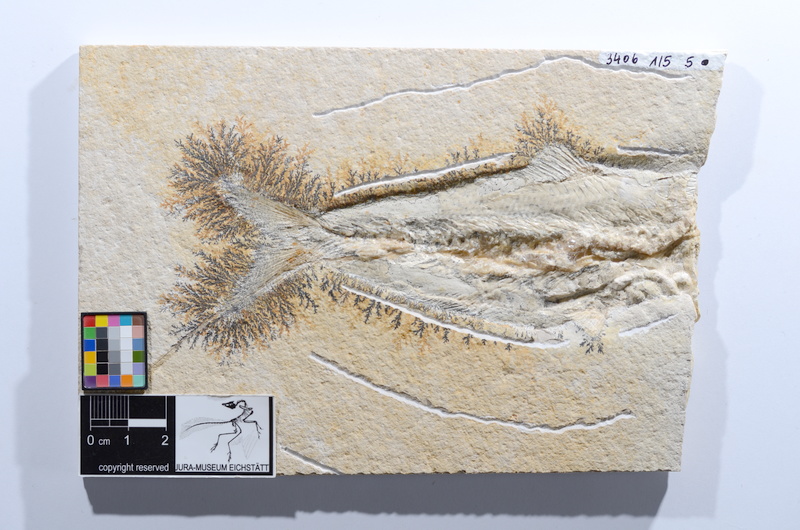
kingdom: Animalia
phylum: Chordata
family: Ascalaboidae
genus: Tharsis
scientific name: Tharsis dubius
